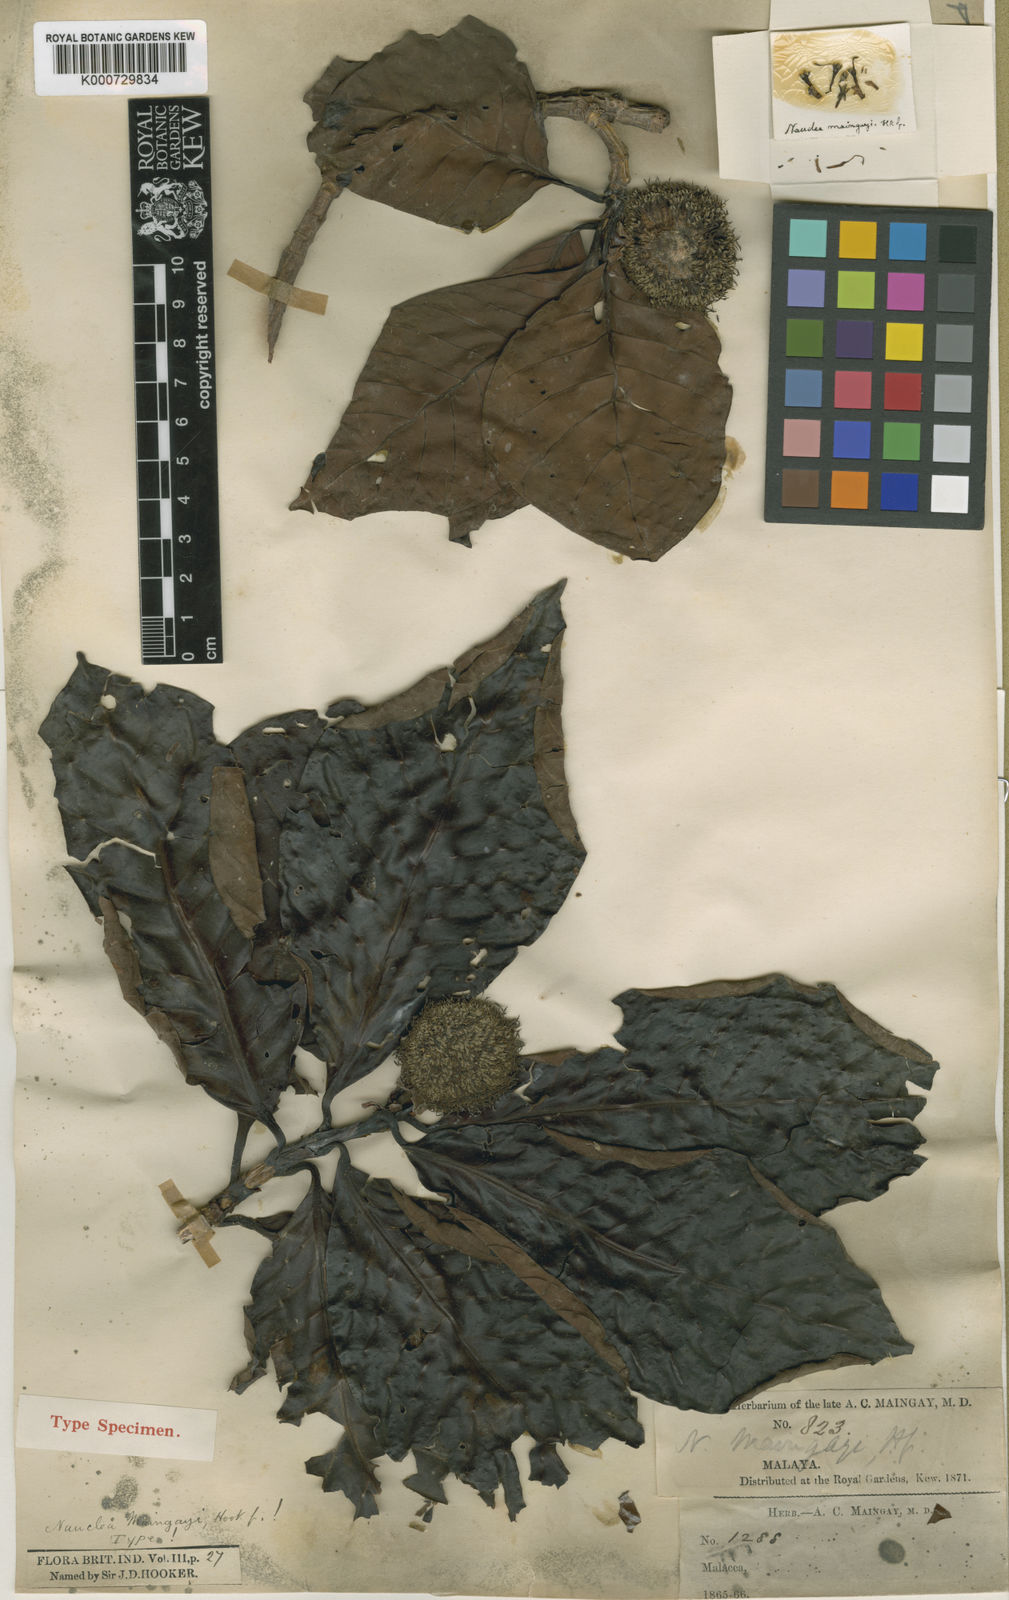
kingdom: Plantae
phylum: Tracheophyta
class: Magnoliopsida
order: Gentianales
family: Rubiaceae
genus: Ochreinauclea
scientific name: Ochreinauclea maingayi
